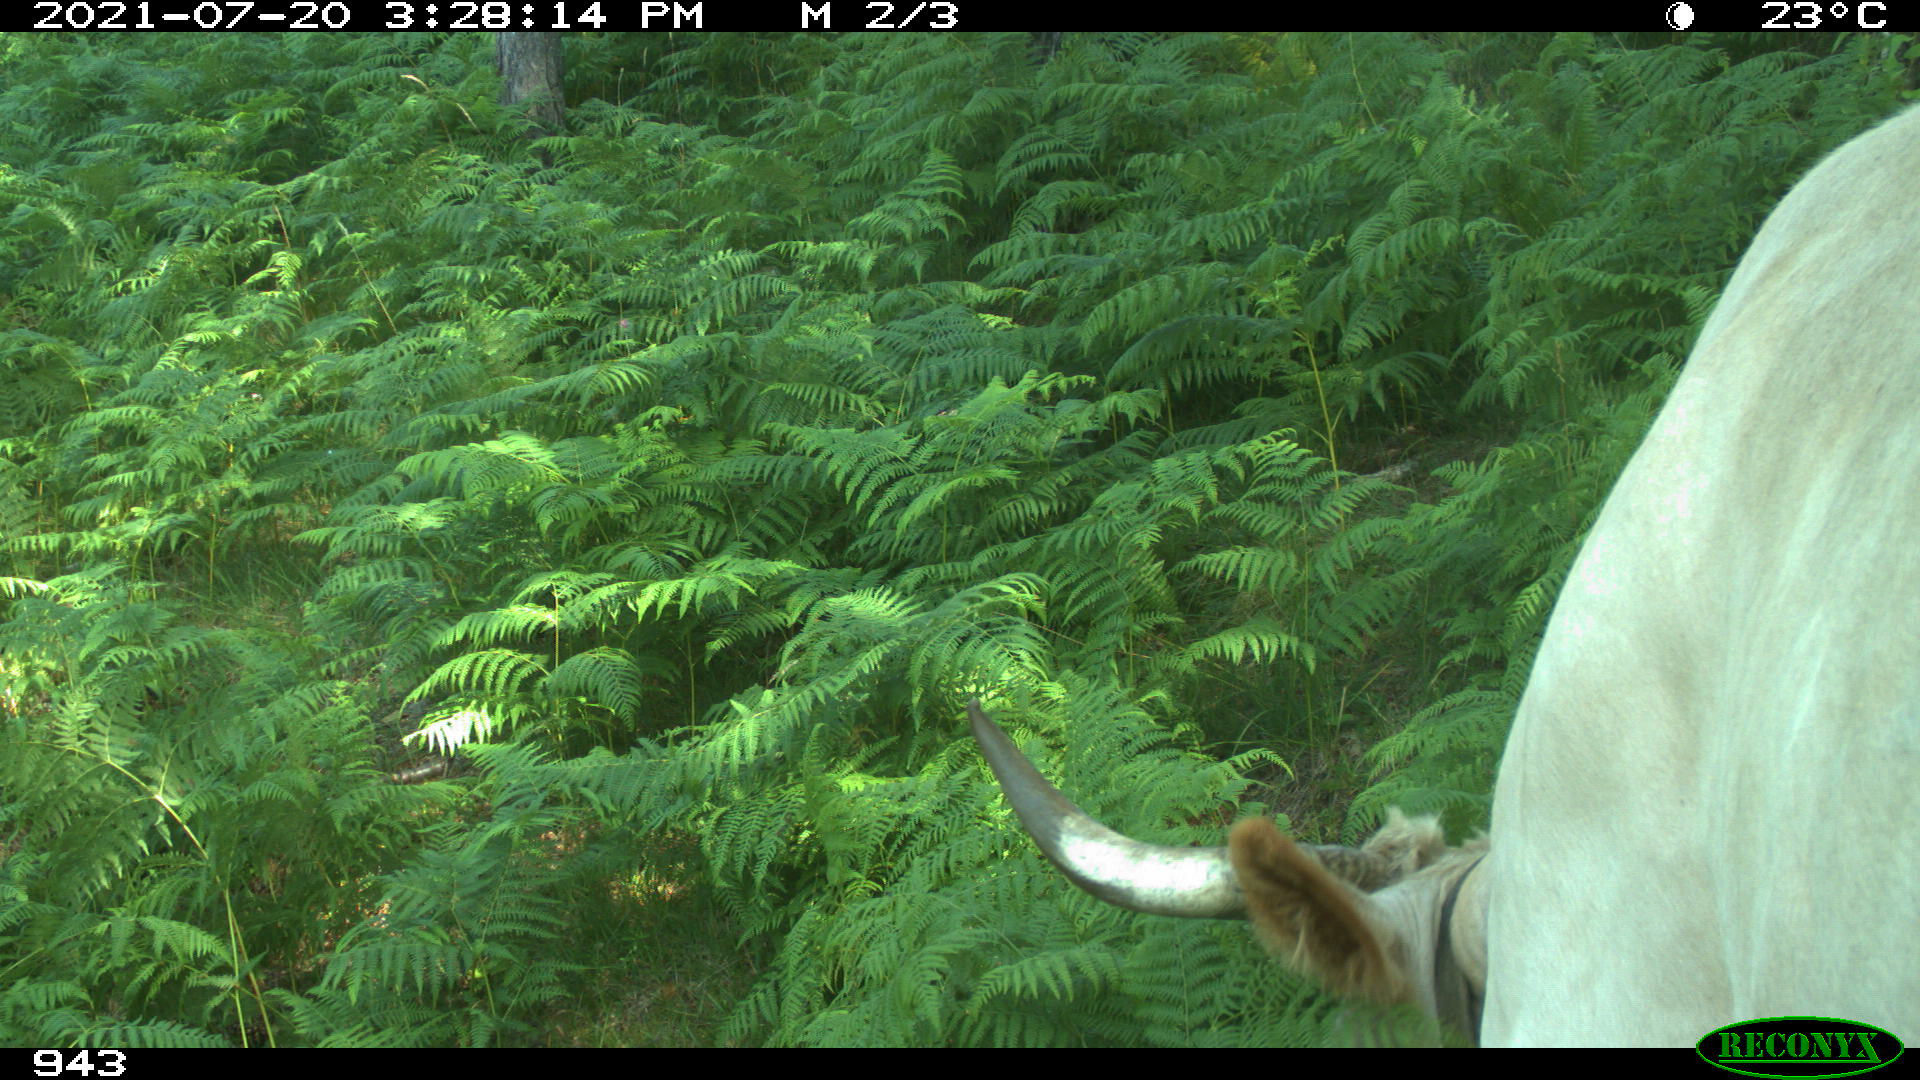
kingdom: Animalia
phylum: Chordata
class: Mammalia
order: Artiodactyla
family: Bovidae
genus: Bos
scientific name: Bos taurus
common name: Domesticated cattle
